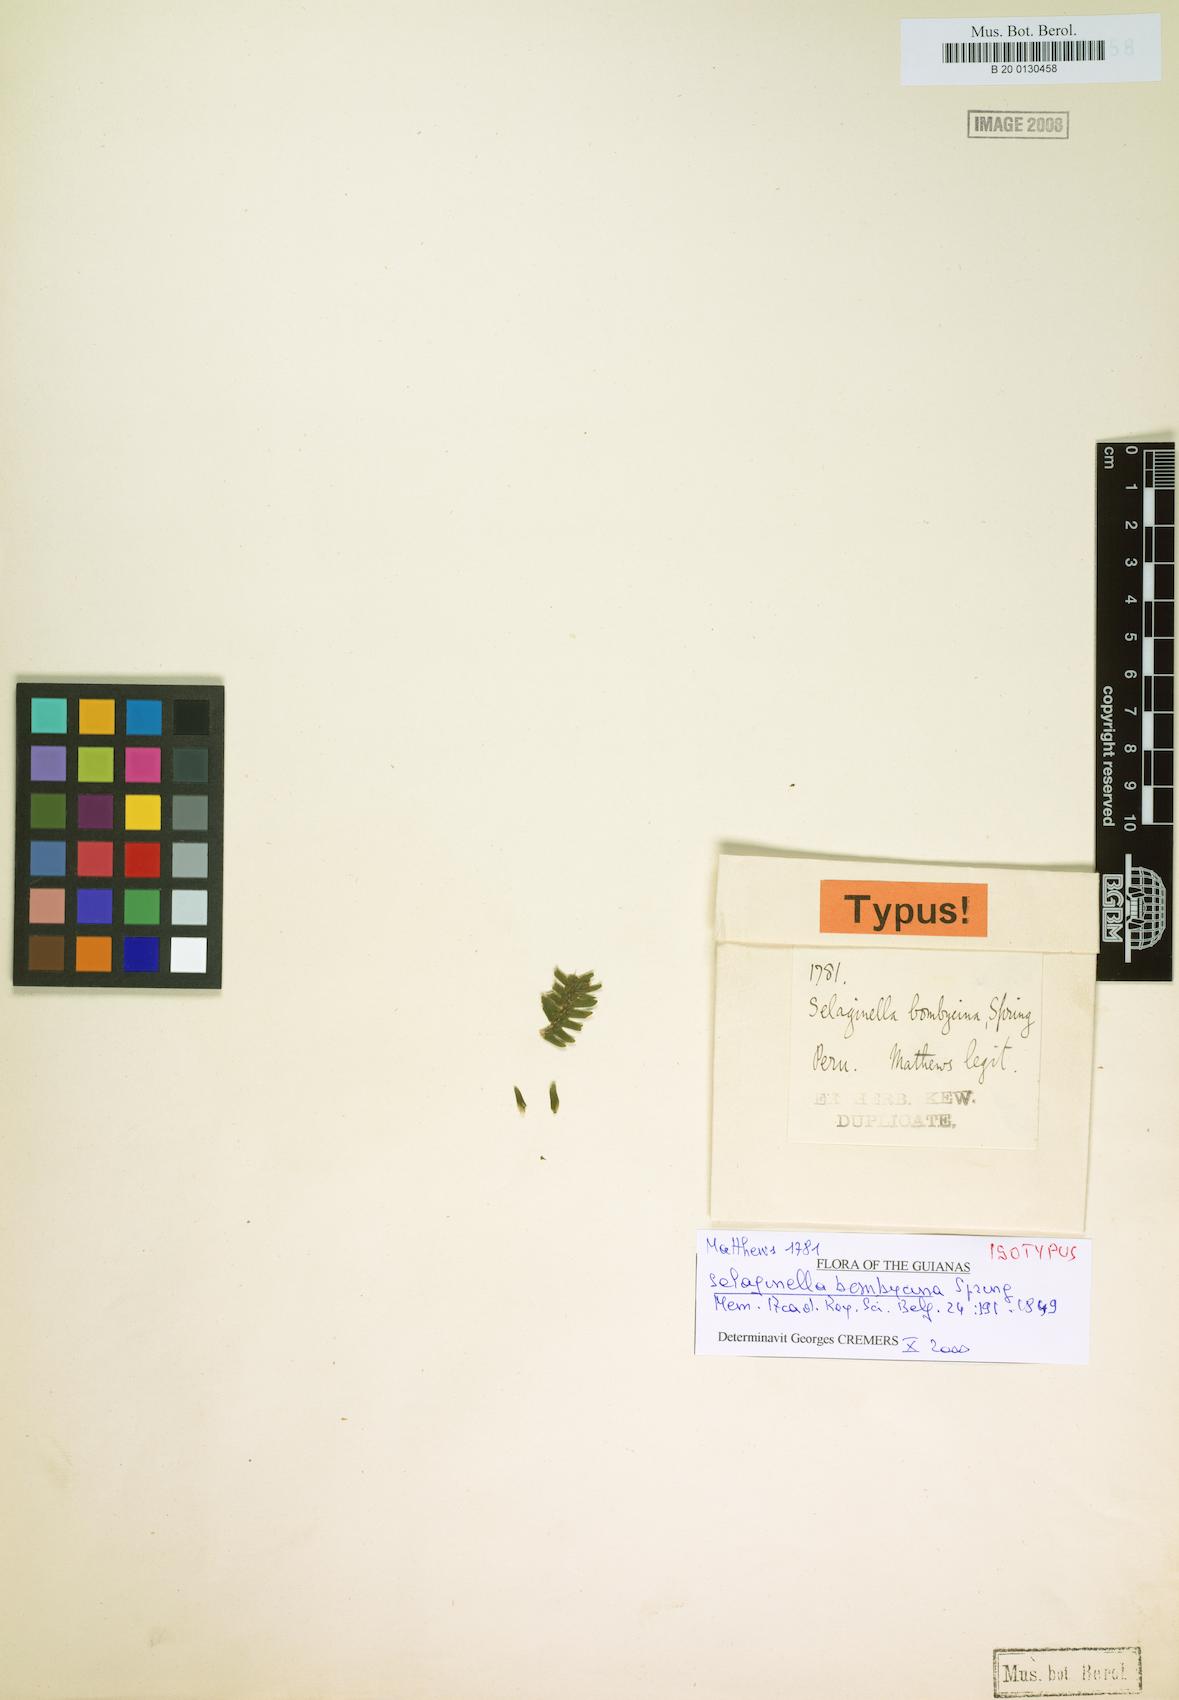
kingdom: Plantae
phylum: Tracheophyta
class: Lycopodiopsida
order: Selaginellales
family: Selaginellaceae
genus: Selaginella
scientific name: Selaginella bombycina
